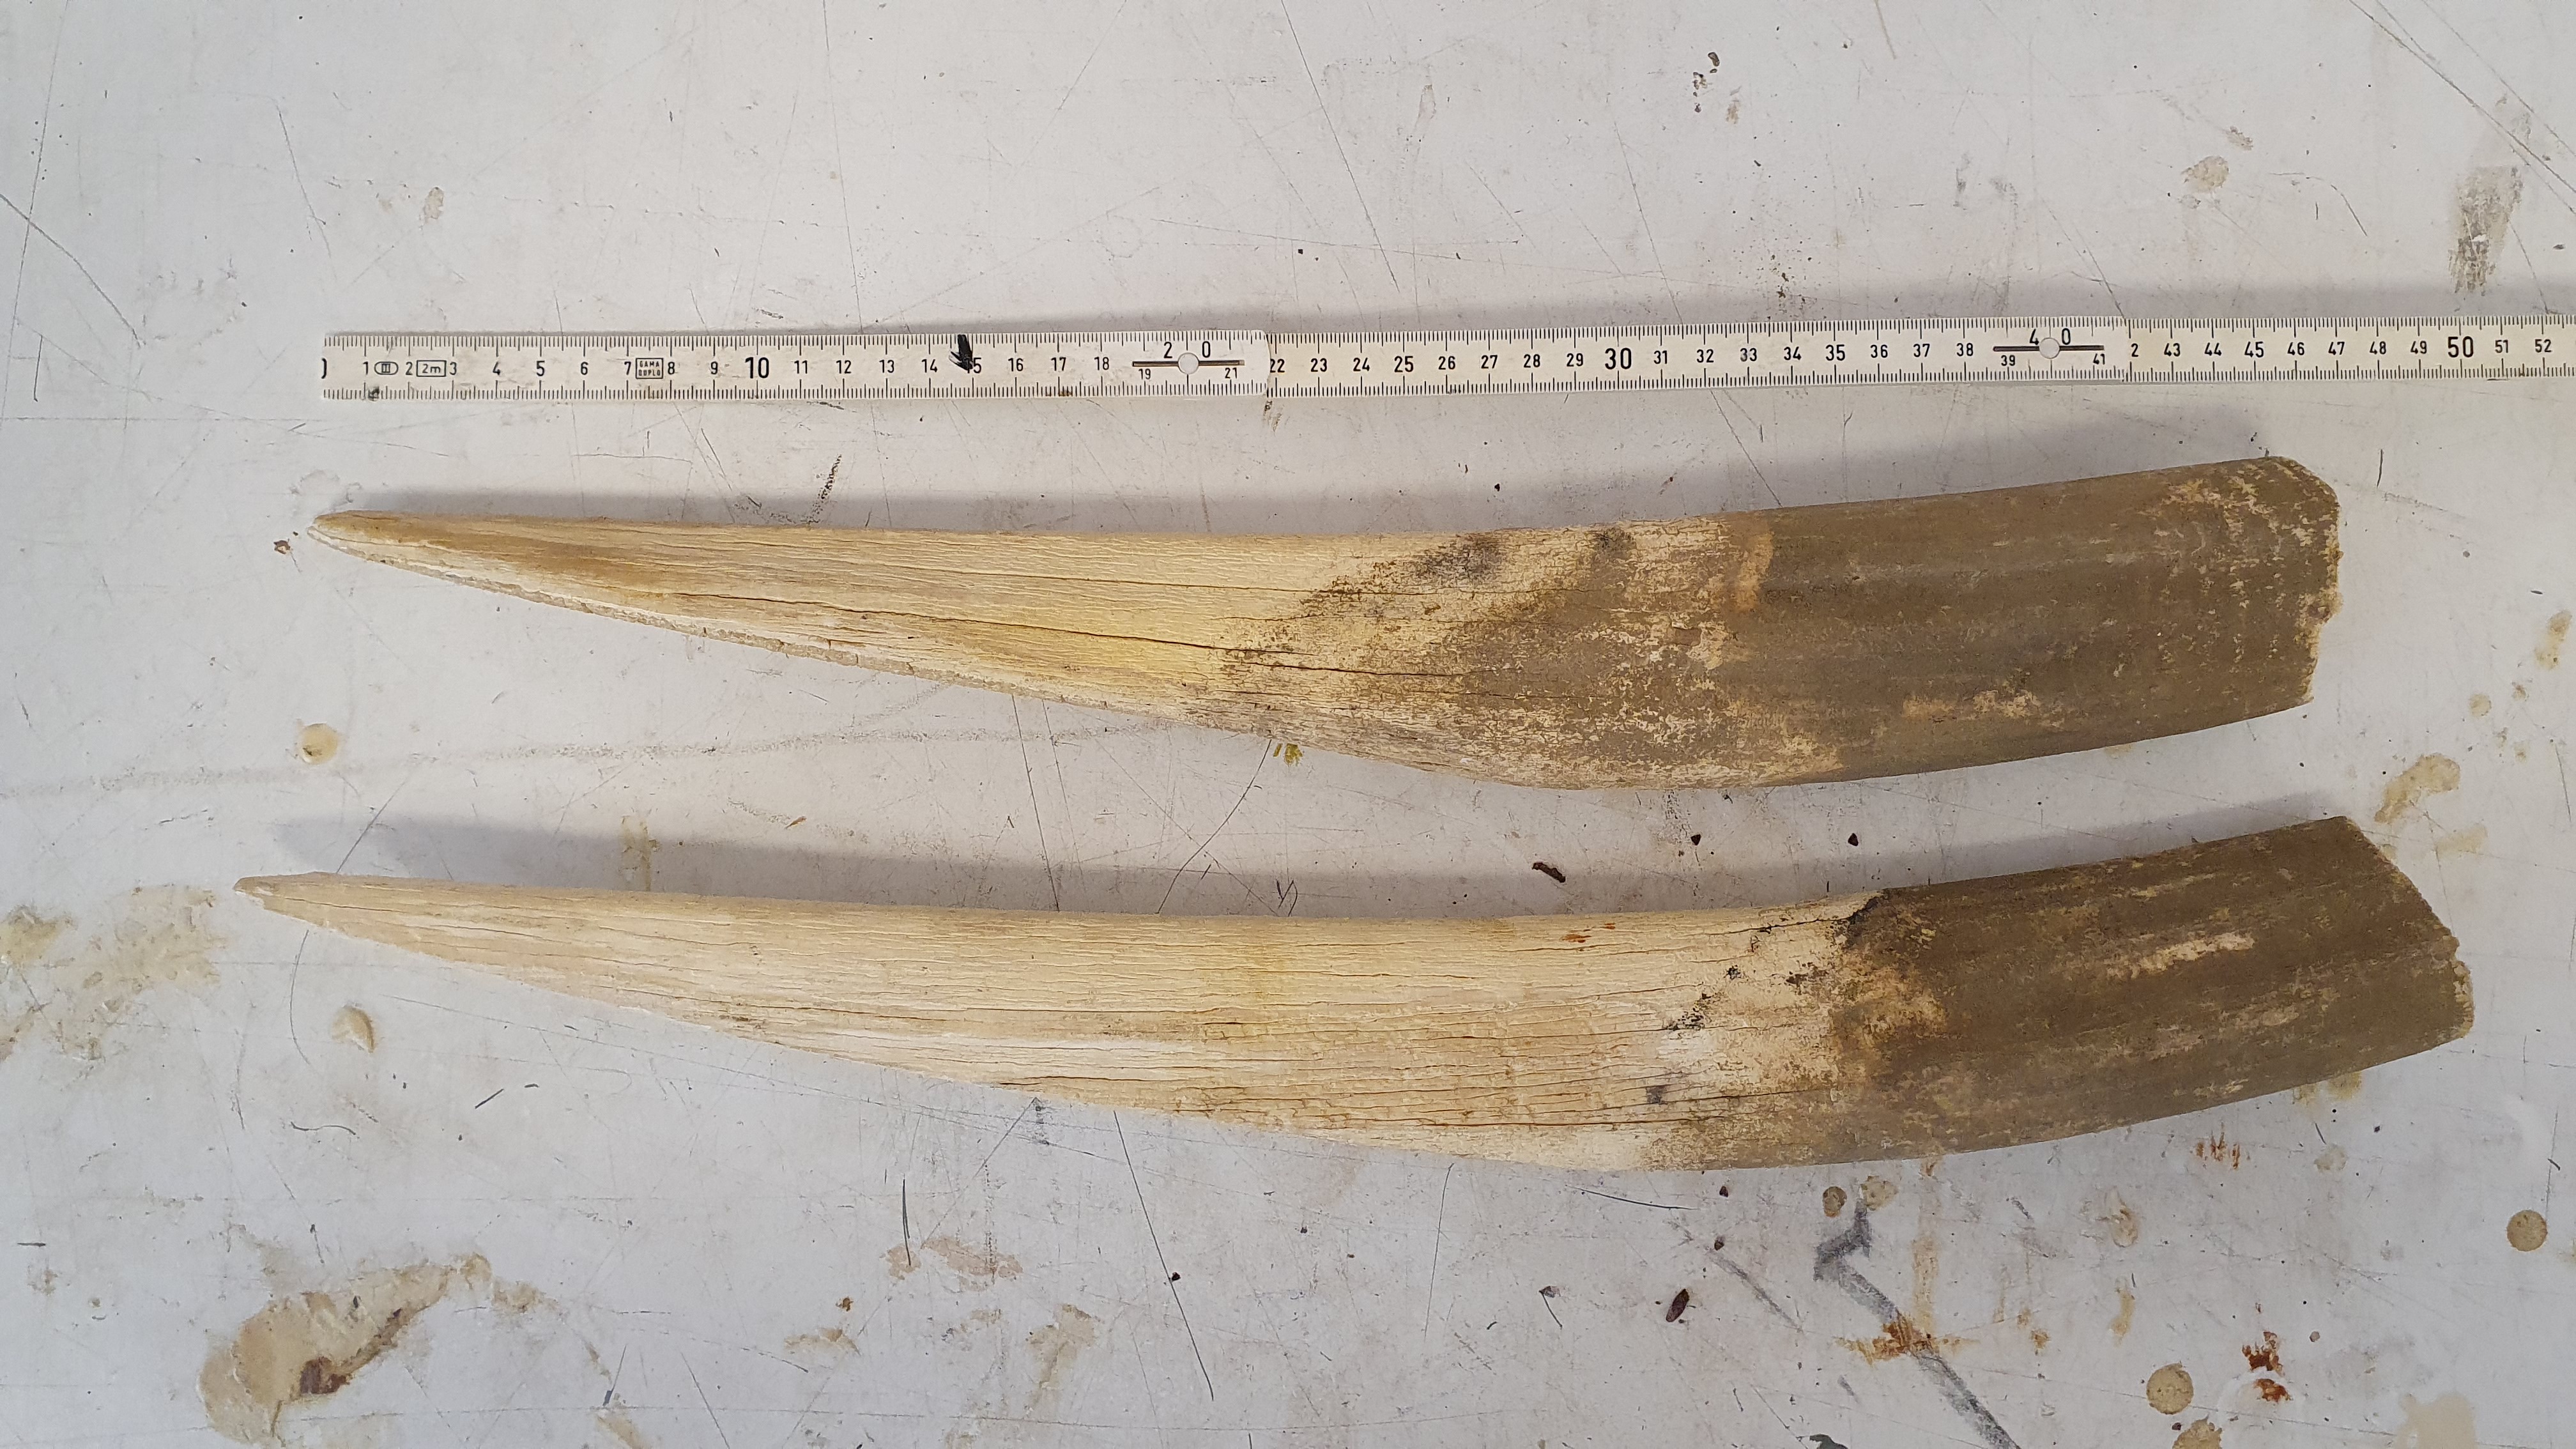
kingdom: Animalia
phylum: Chordata
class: Mammalia
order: Carnivora
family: Odobenidae
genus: Odobenus
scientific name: Odobenus rosmarus
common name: Walrus
